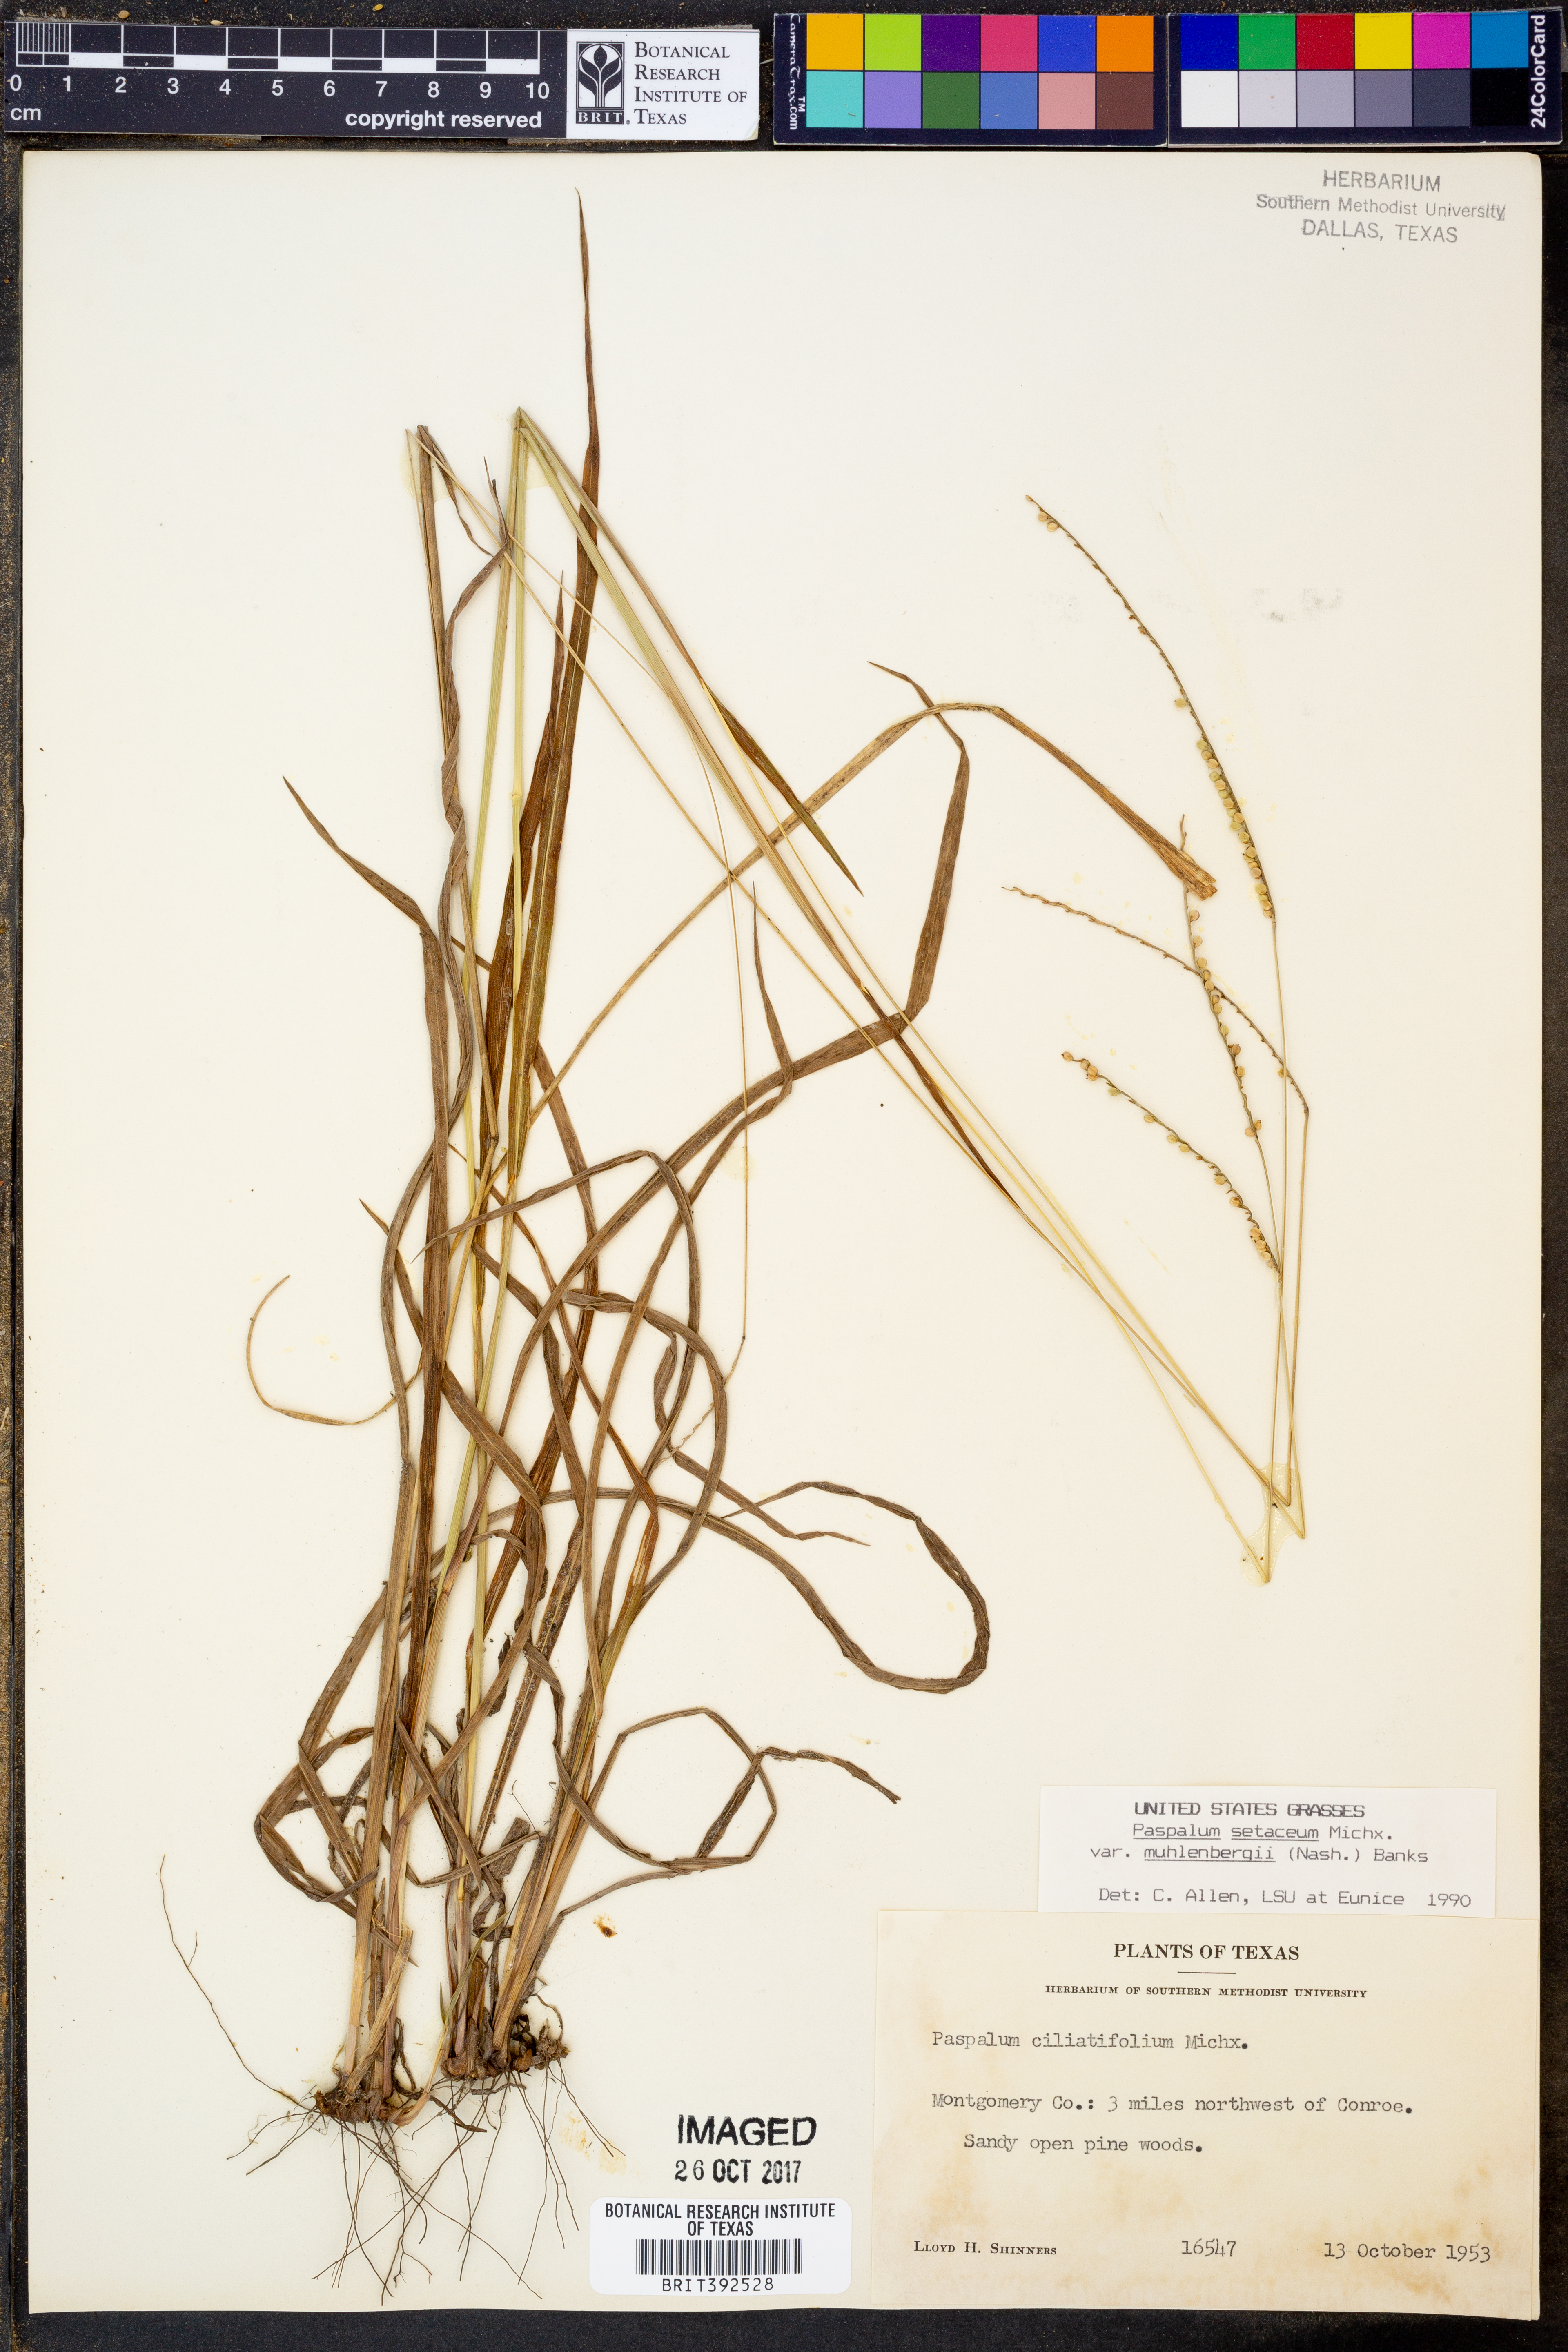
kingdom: Plantae
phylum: Tracheophyta
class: Liliopsida
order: Poales
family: Poaceae
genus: Paspalum
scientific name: Paspalum setaceum
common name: Slender paspalum
